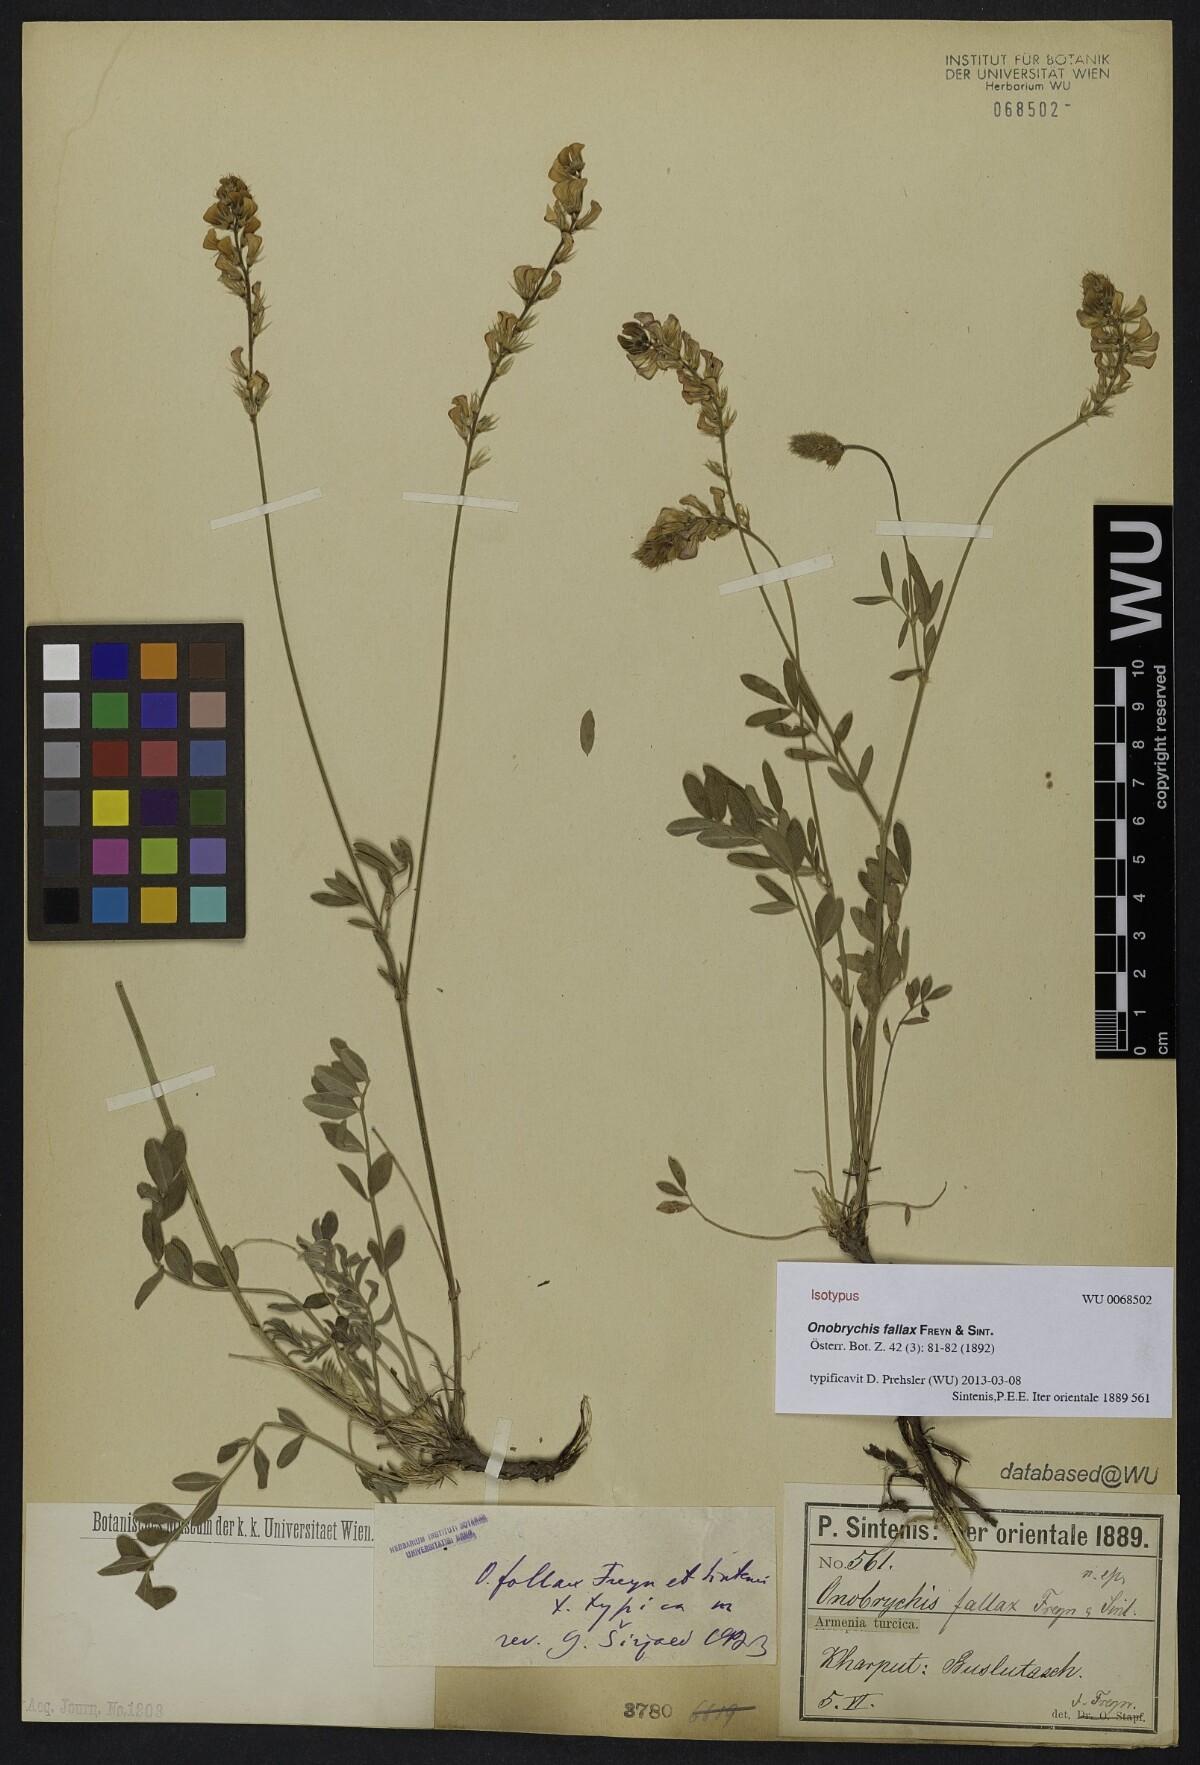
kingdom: Plantae
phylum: Tracheophyta
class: Magnoliopsida
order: Fabales
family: Fabaceae
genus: Onobrychis
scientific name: Onobrychis fallax
